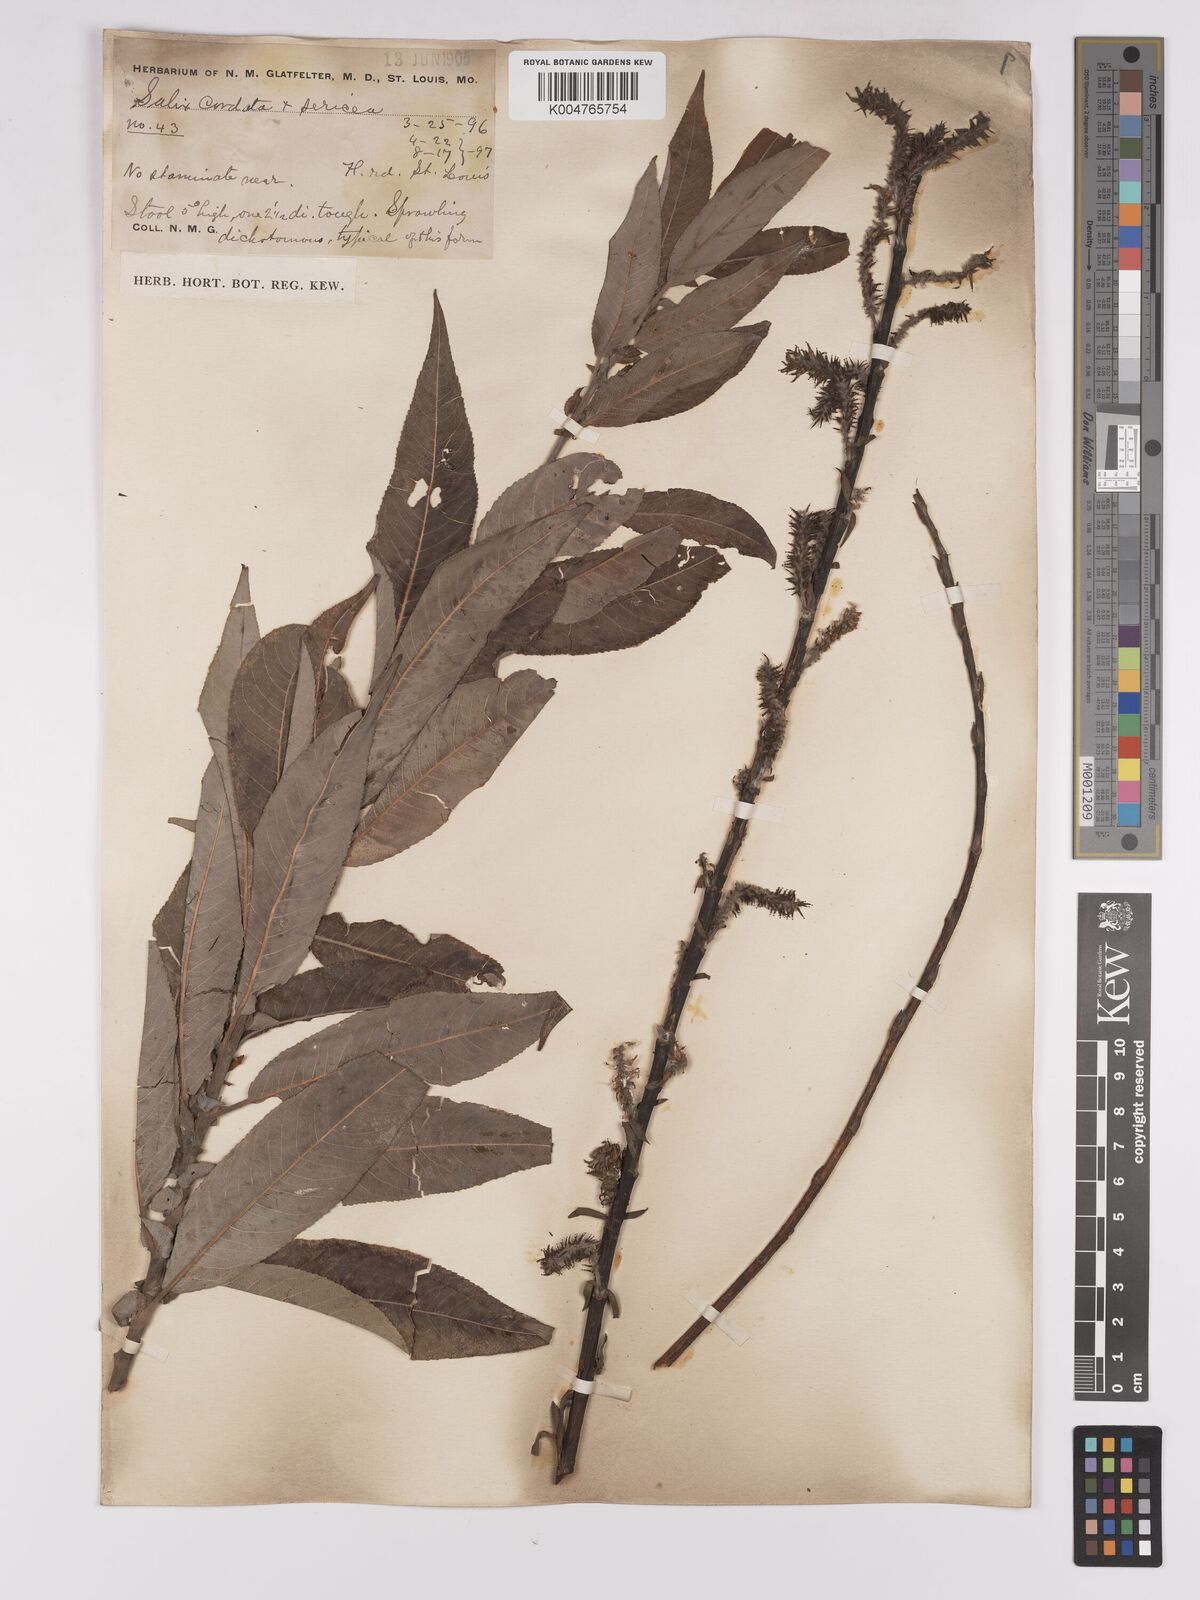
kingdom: Plantae
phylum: Tracheophyta
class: Magnoliopsida
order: Malpighiales
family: Salicaceae
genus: Salix
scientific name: Salix cordata
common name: Heart-leaf willow
